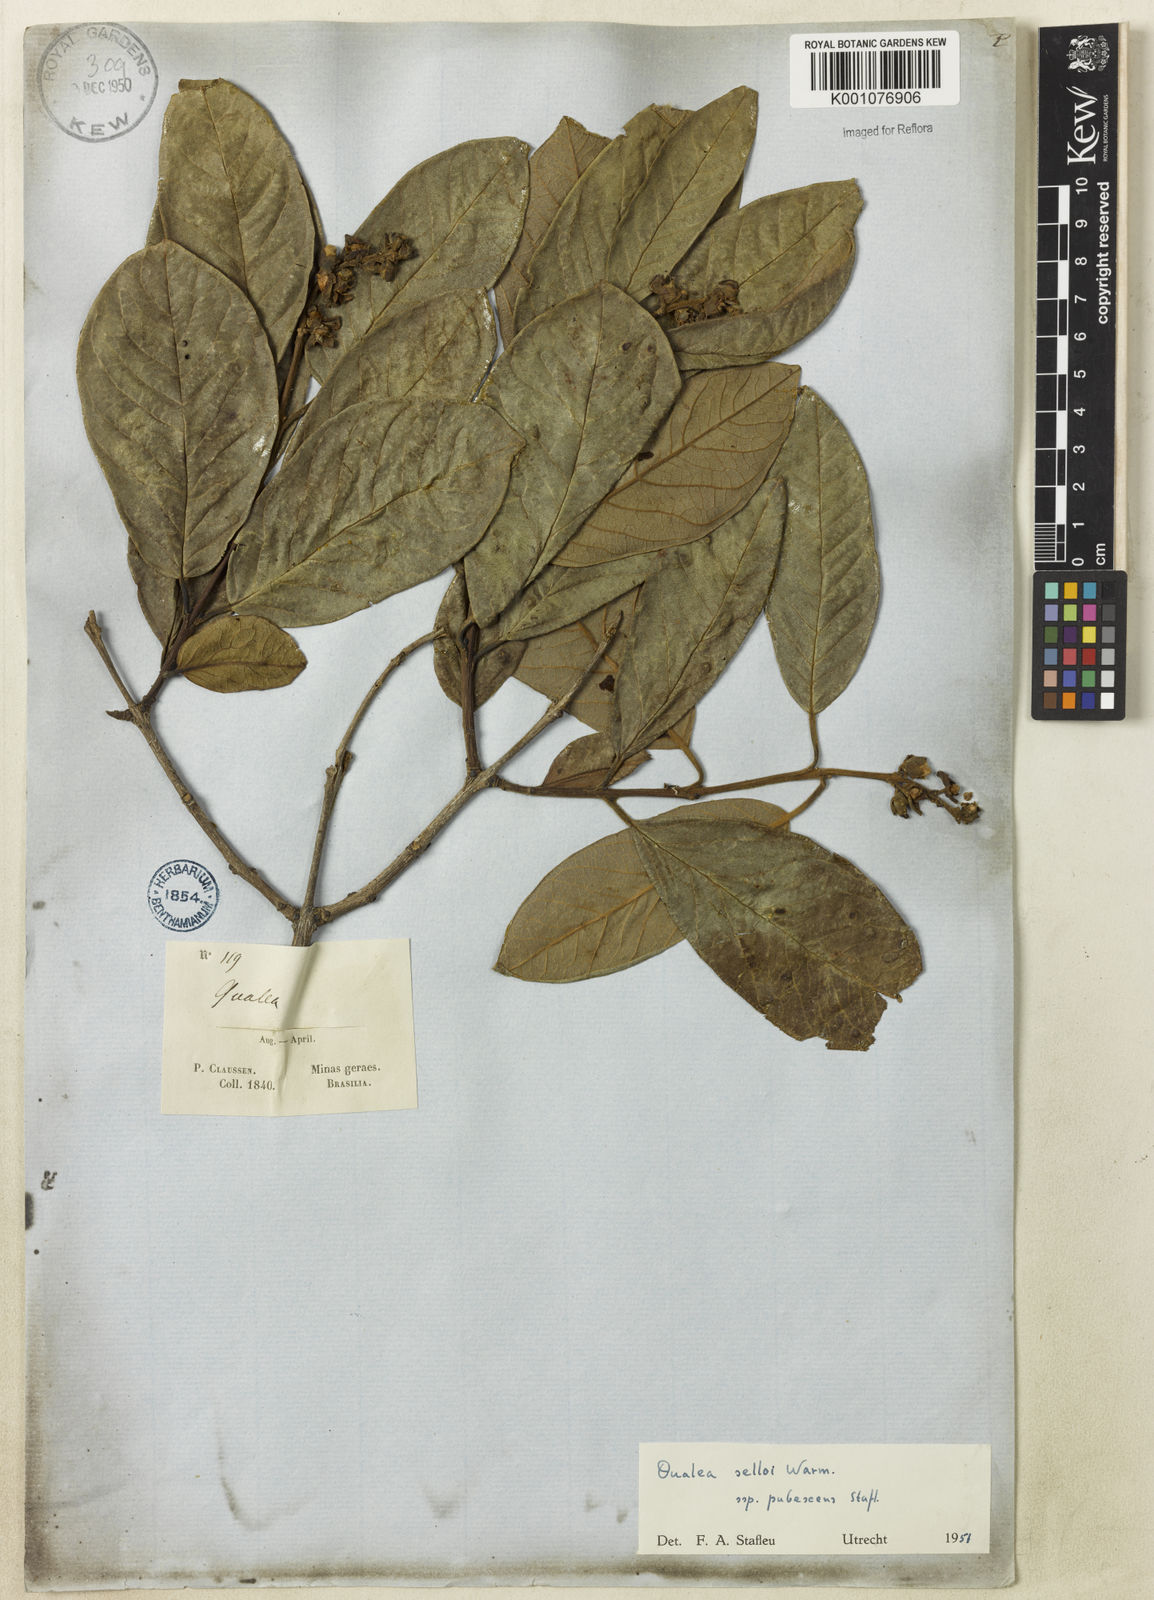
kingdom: Plantae
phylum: Tracheophyta
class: Magnoliopsida
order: Myrtales
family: Vochysiaceae
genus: Qualea
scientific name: Qualea selloi
